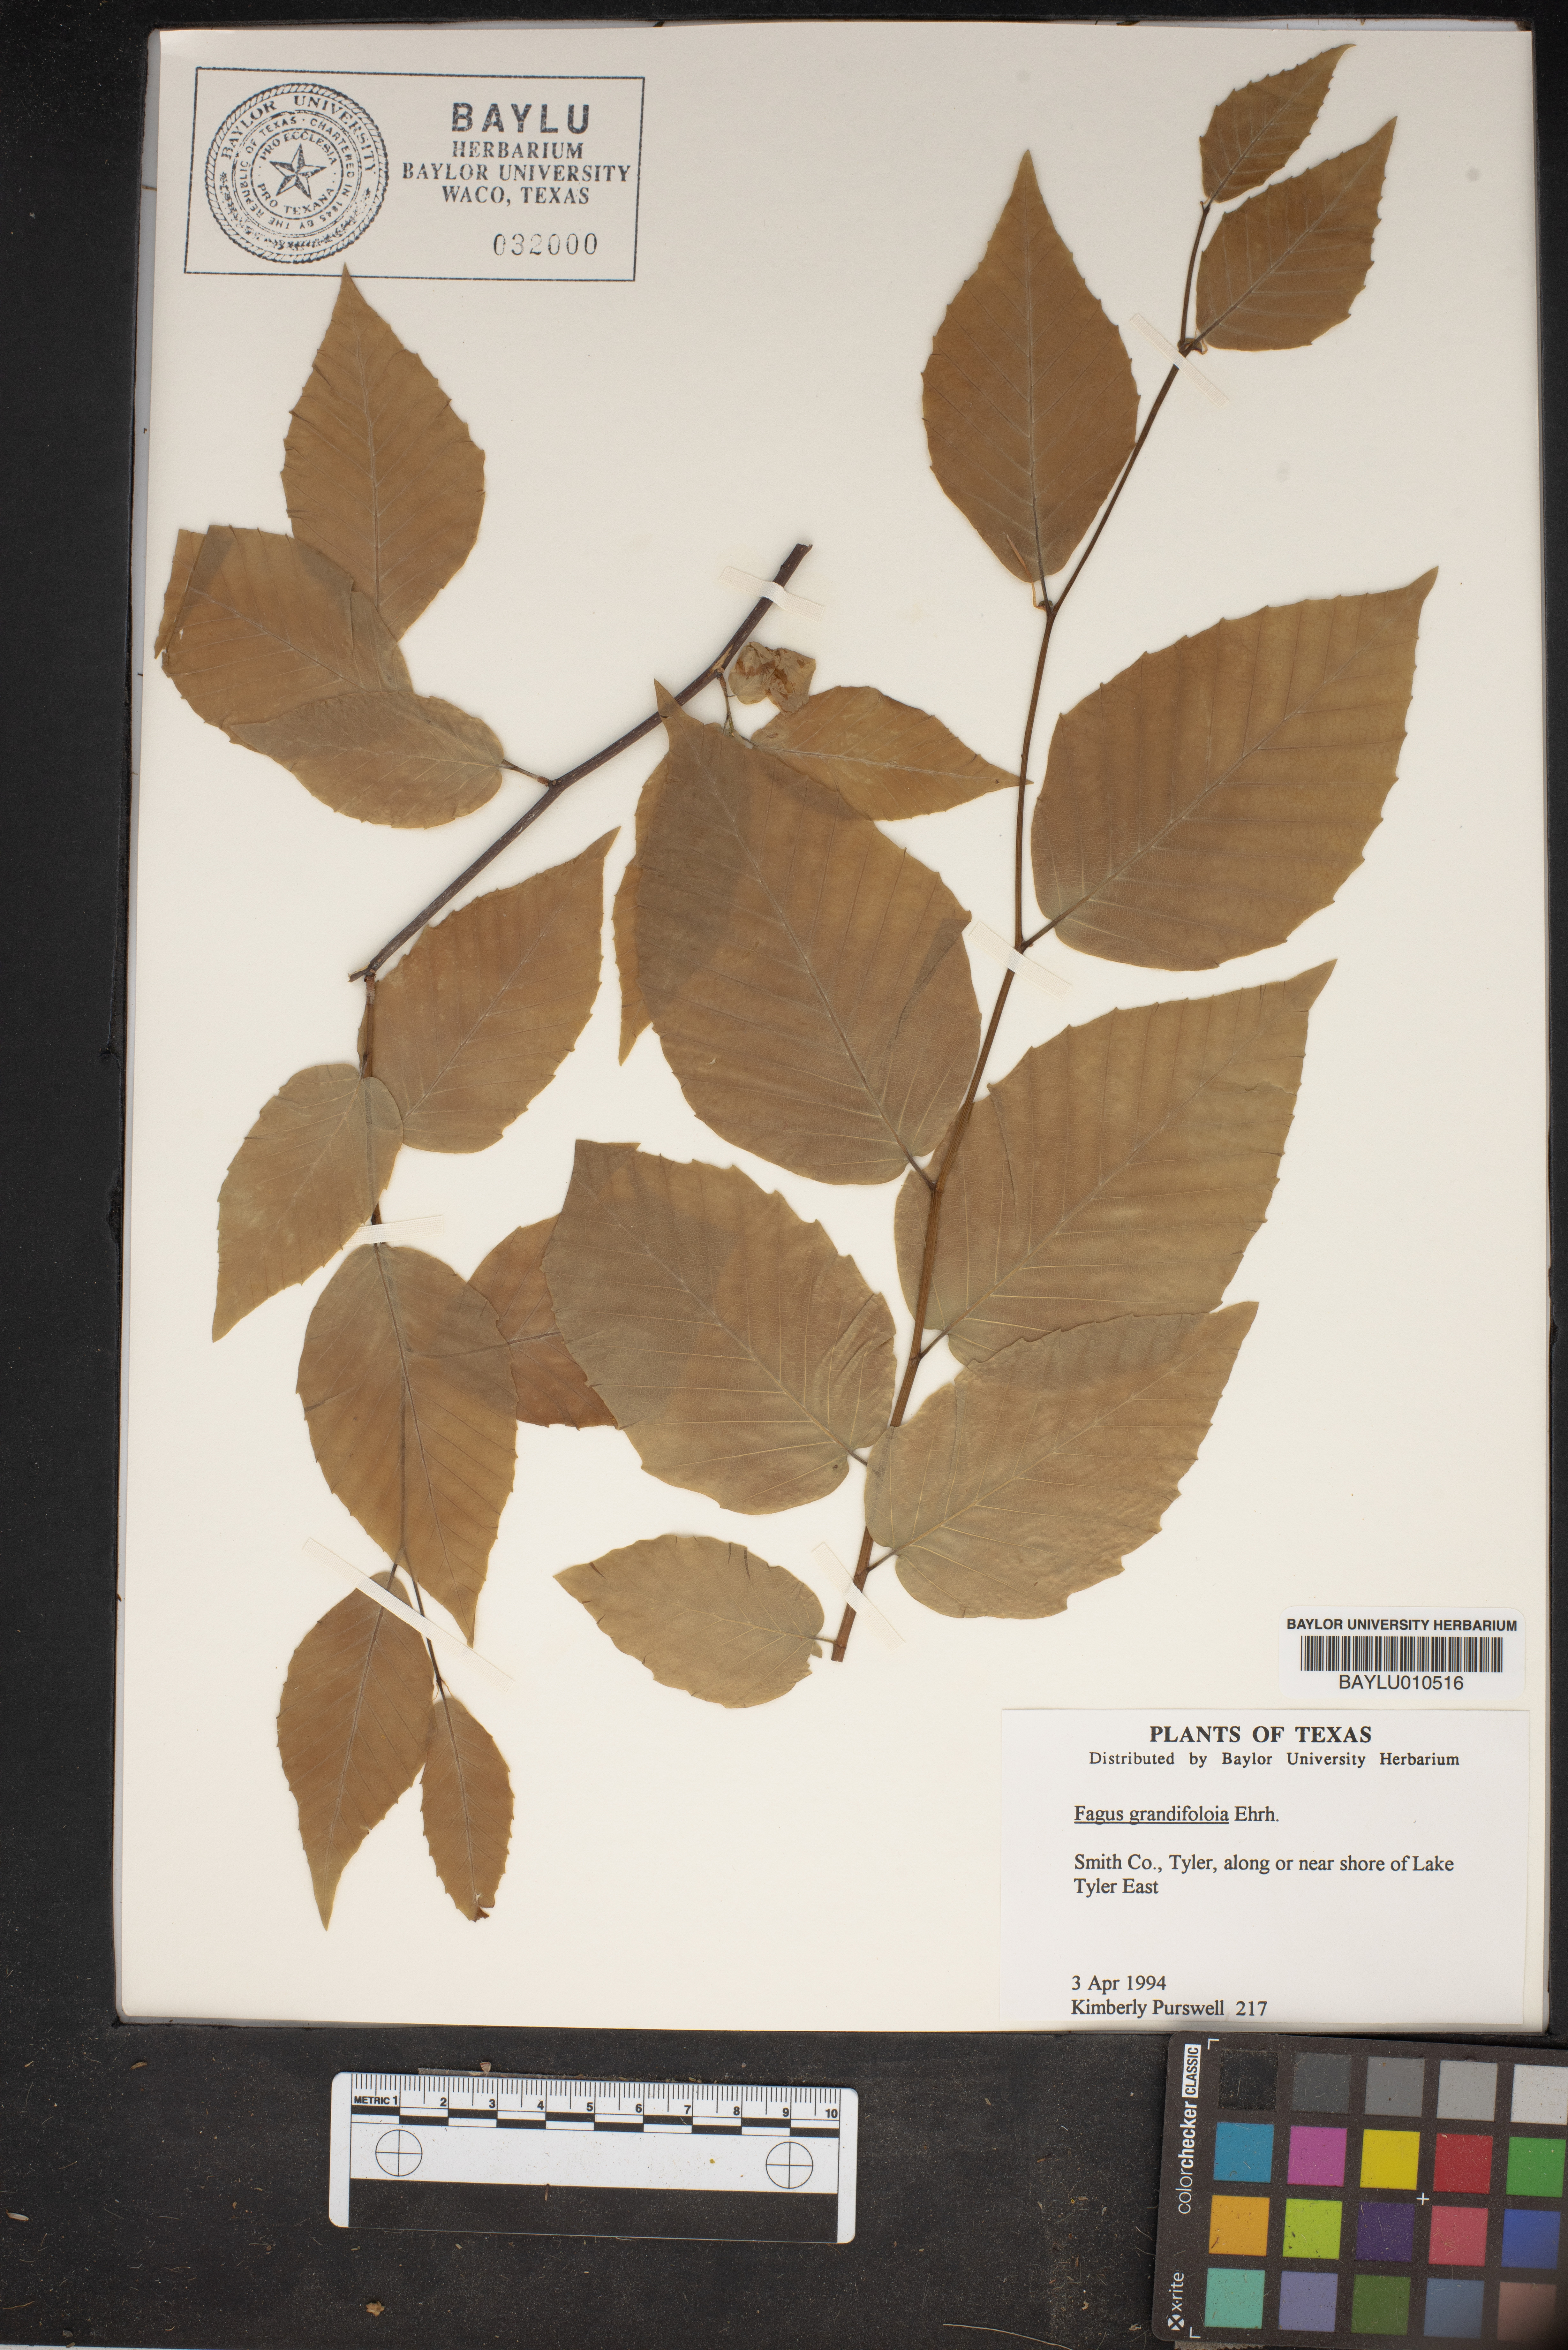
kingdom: Plantae
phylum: Tracheophyta
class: Magnoliopsida
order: Fagales
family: Fagaceae
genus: Fagus
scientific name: Fagus grandifolia
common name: American beech
